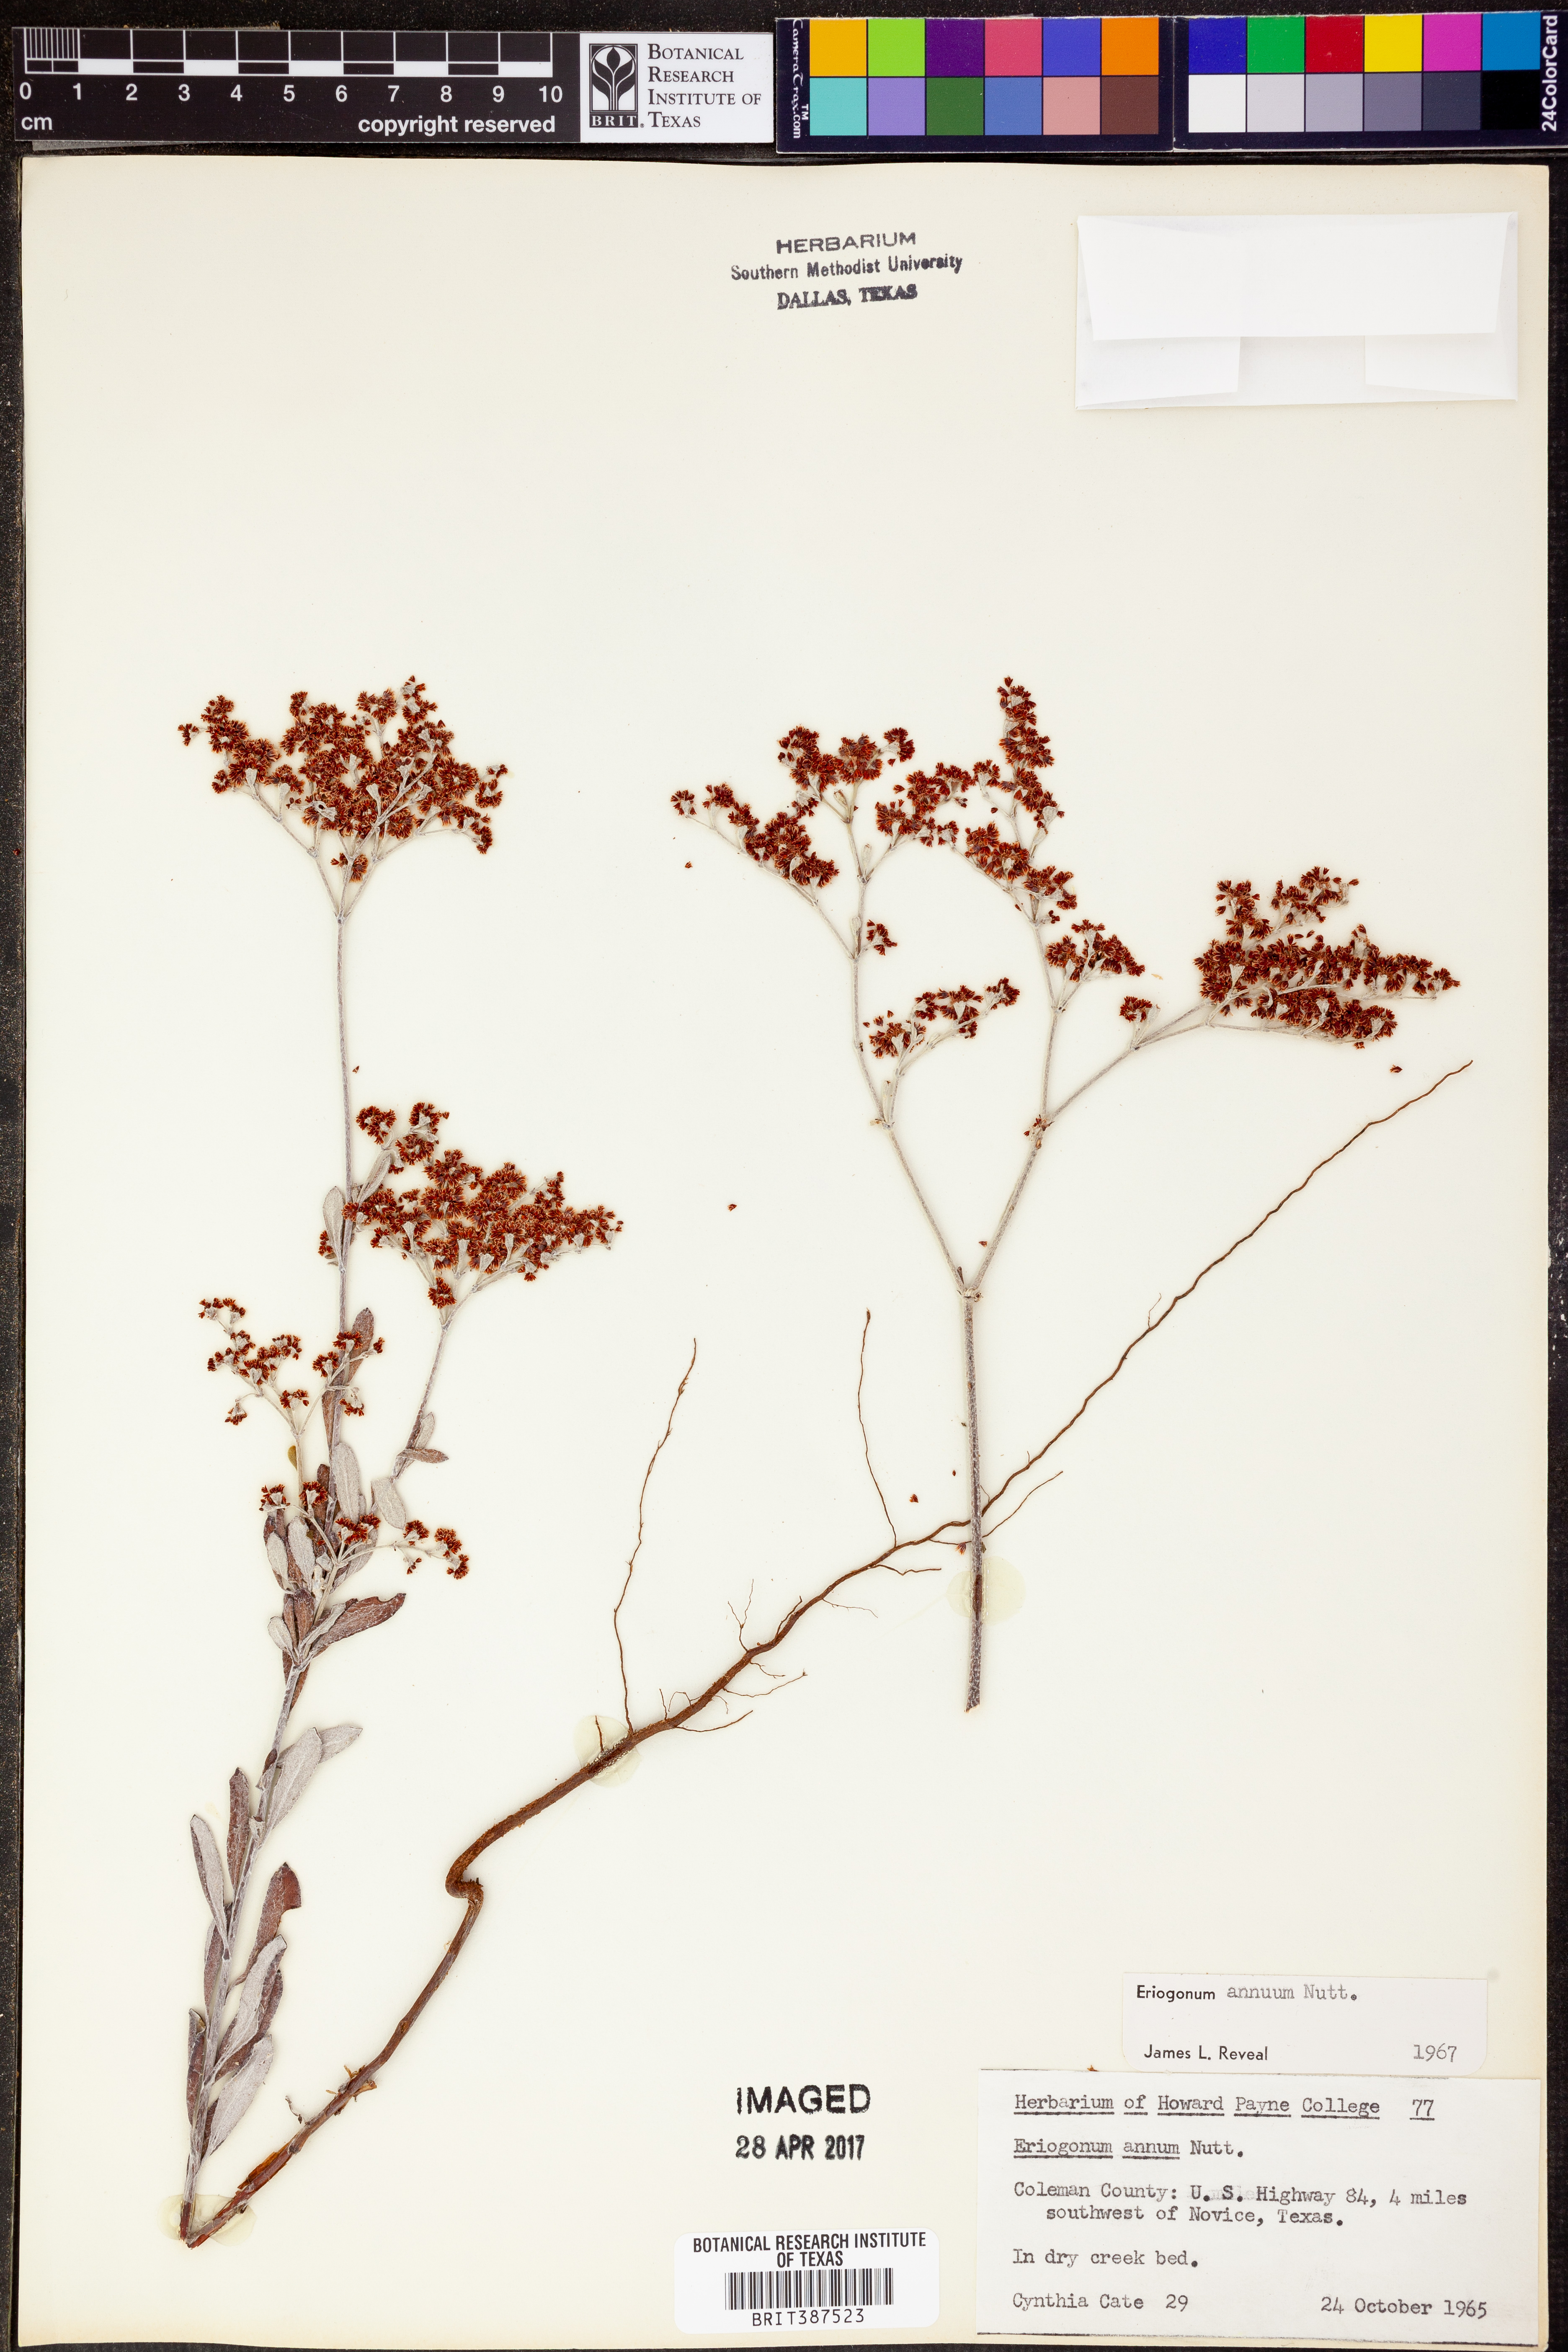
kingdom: Plantae
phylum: Tracheophyta
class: Magnoliopsida
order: Caryophyllales
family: Polygonaceae
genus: Eriogonum
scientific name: Eriogonum annuum
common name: Annual wild buckwheat
